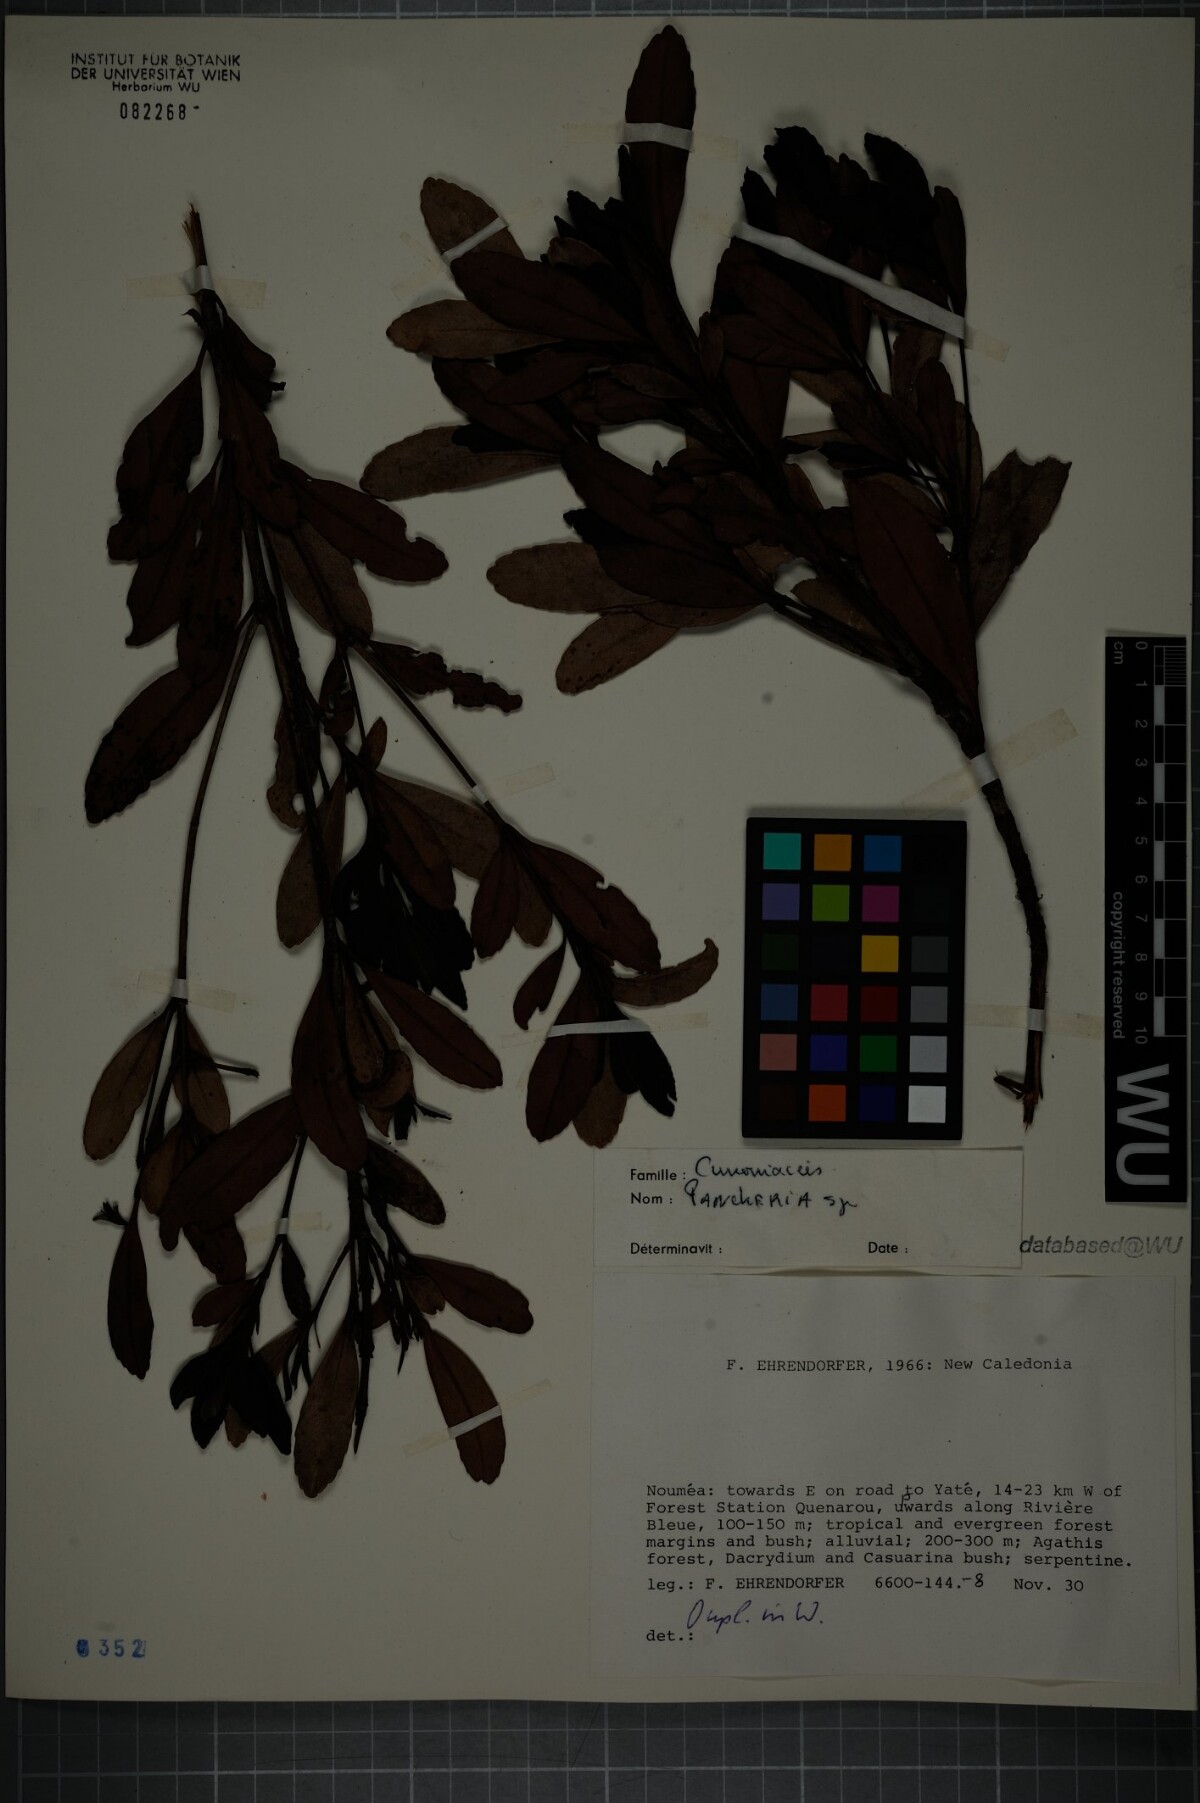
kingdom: Plantae
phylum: Tracheophyta
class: Magnoliopsida
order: Oxalidales
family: Cunoniaceae
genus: Pancheria
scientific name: Pancheria
